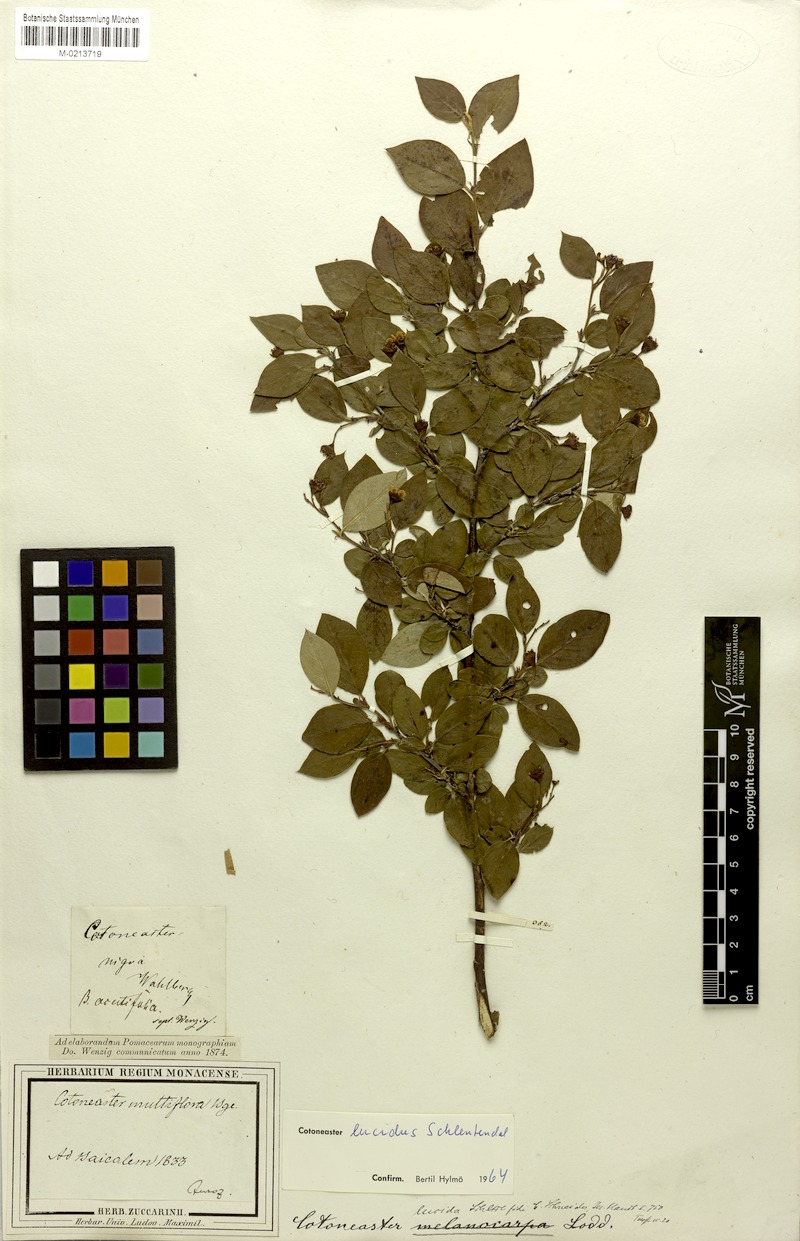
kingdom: Plantae
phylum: Tracheophyta
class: Magnoliopsida
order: Rosales
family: Rosaceae
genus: Cotoneaster
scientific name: Cotoneaster acutifolius
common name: Peking cotoneaster
